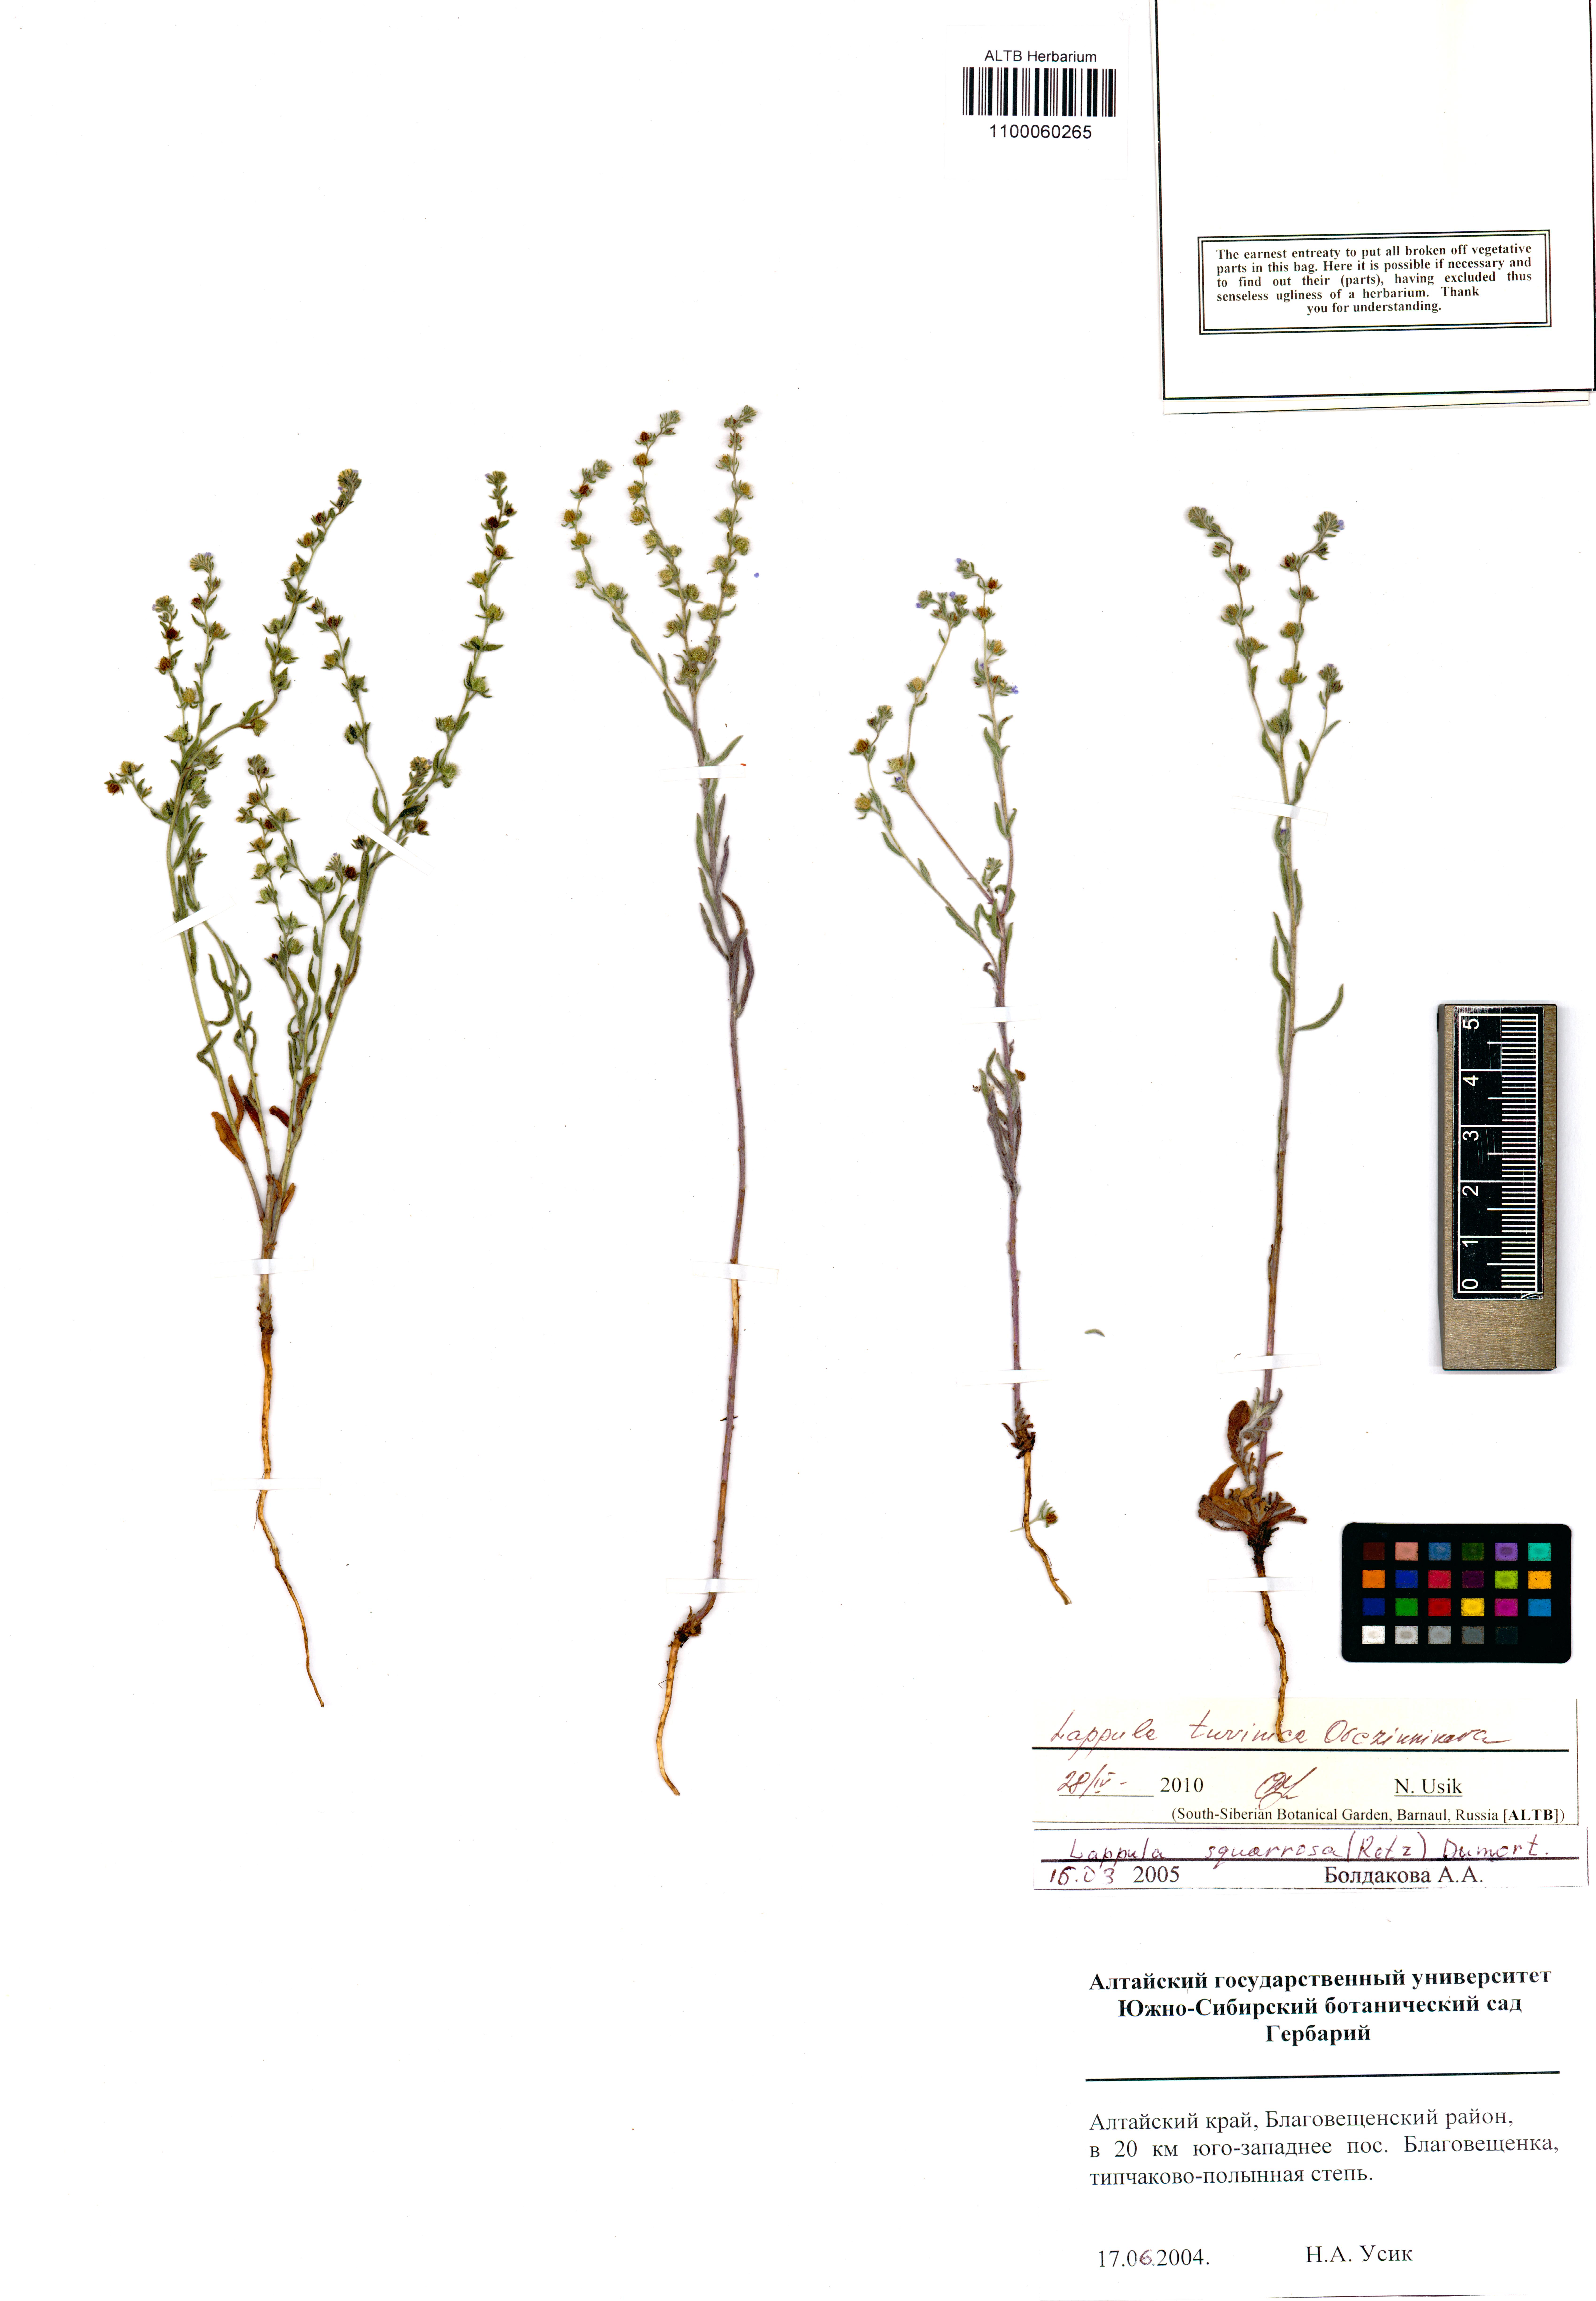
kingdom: Plantae
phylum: Tracheophyta
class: Magnoliopsida
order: Boraginales
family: Boraginaceae
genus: Lappula
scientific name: Lappula tuvinica
